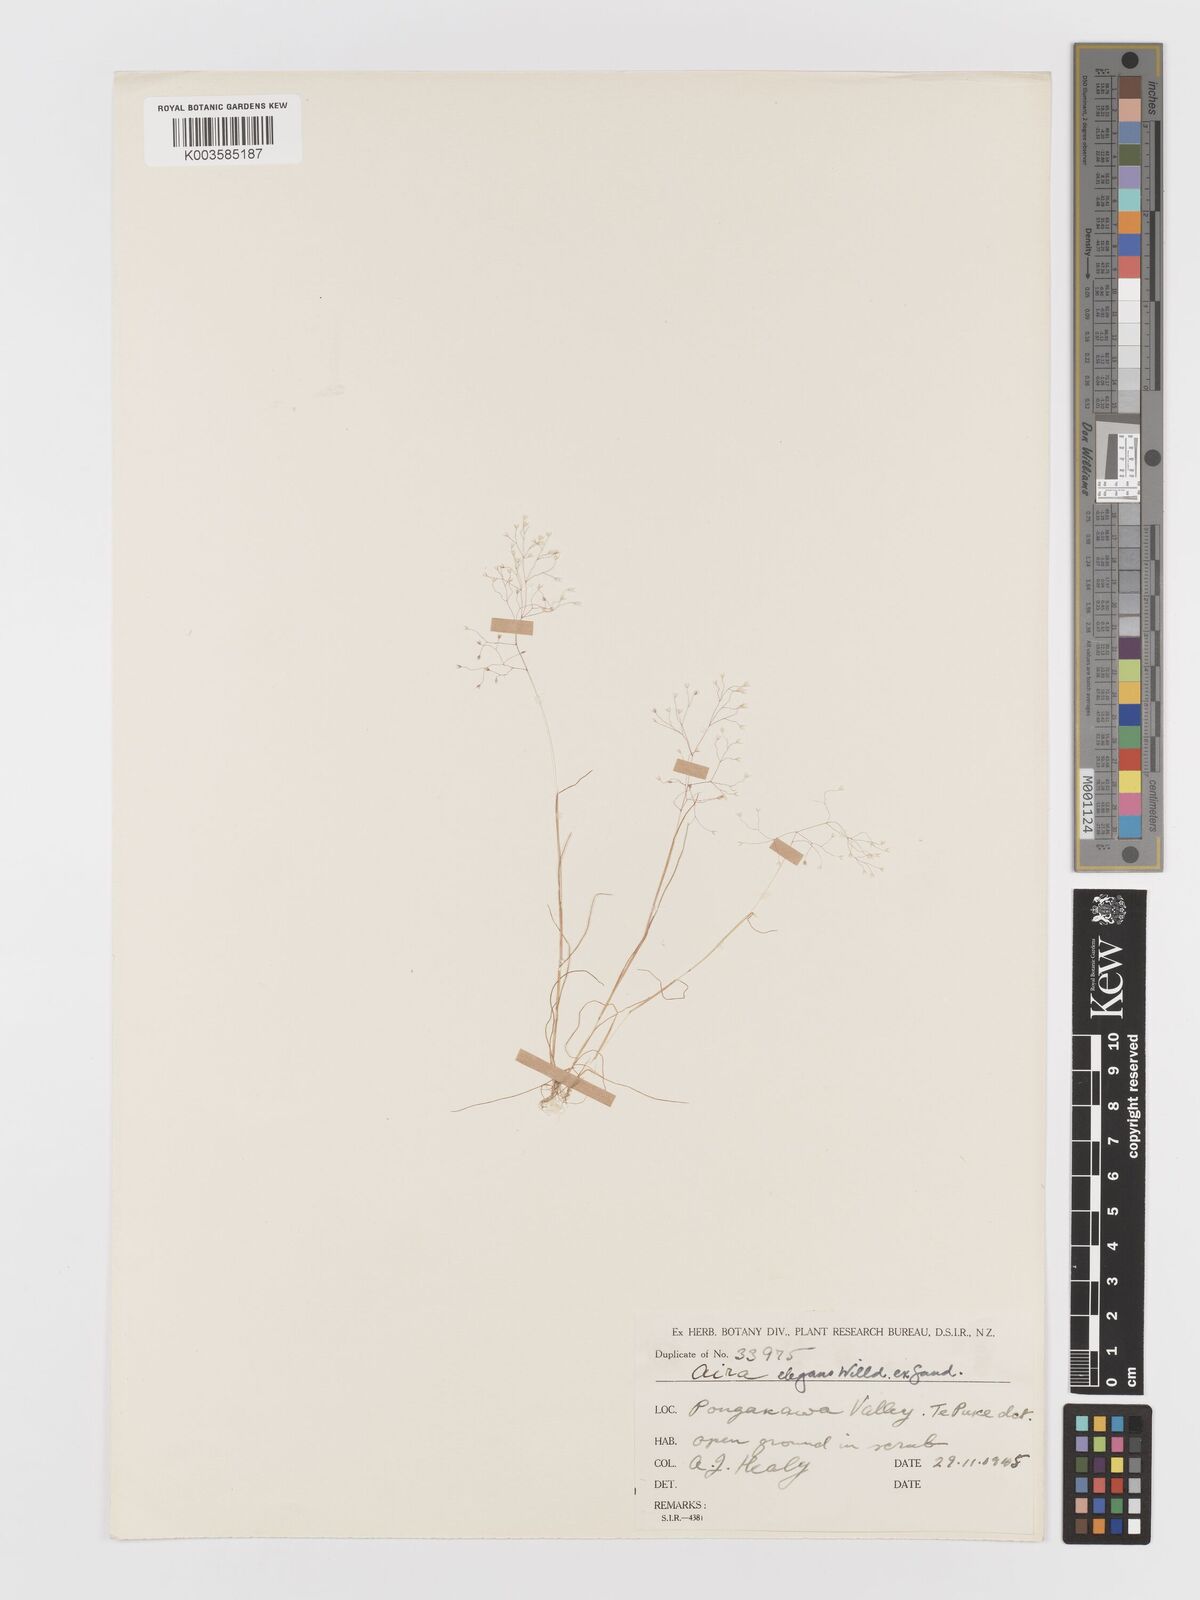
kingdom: Plantae
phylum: Tracheophyta
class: Liliopsida
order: Poales
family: Poaceae
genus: Aira
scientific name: Aira elegans
